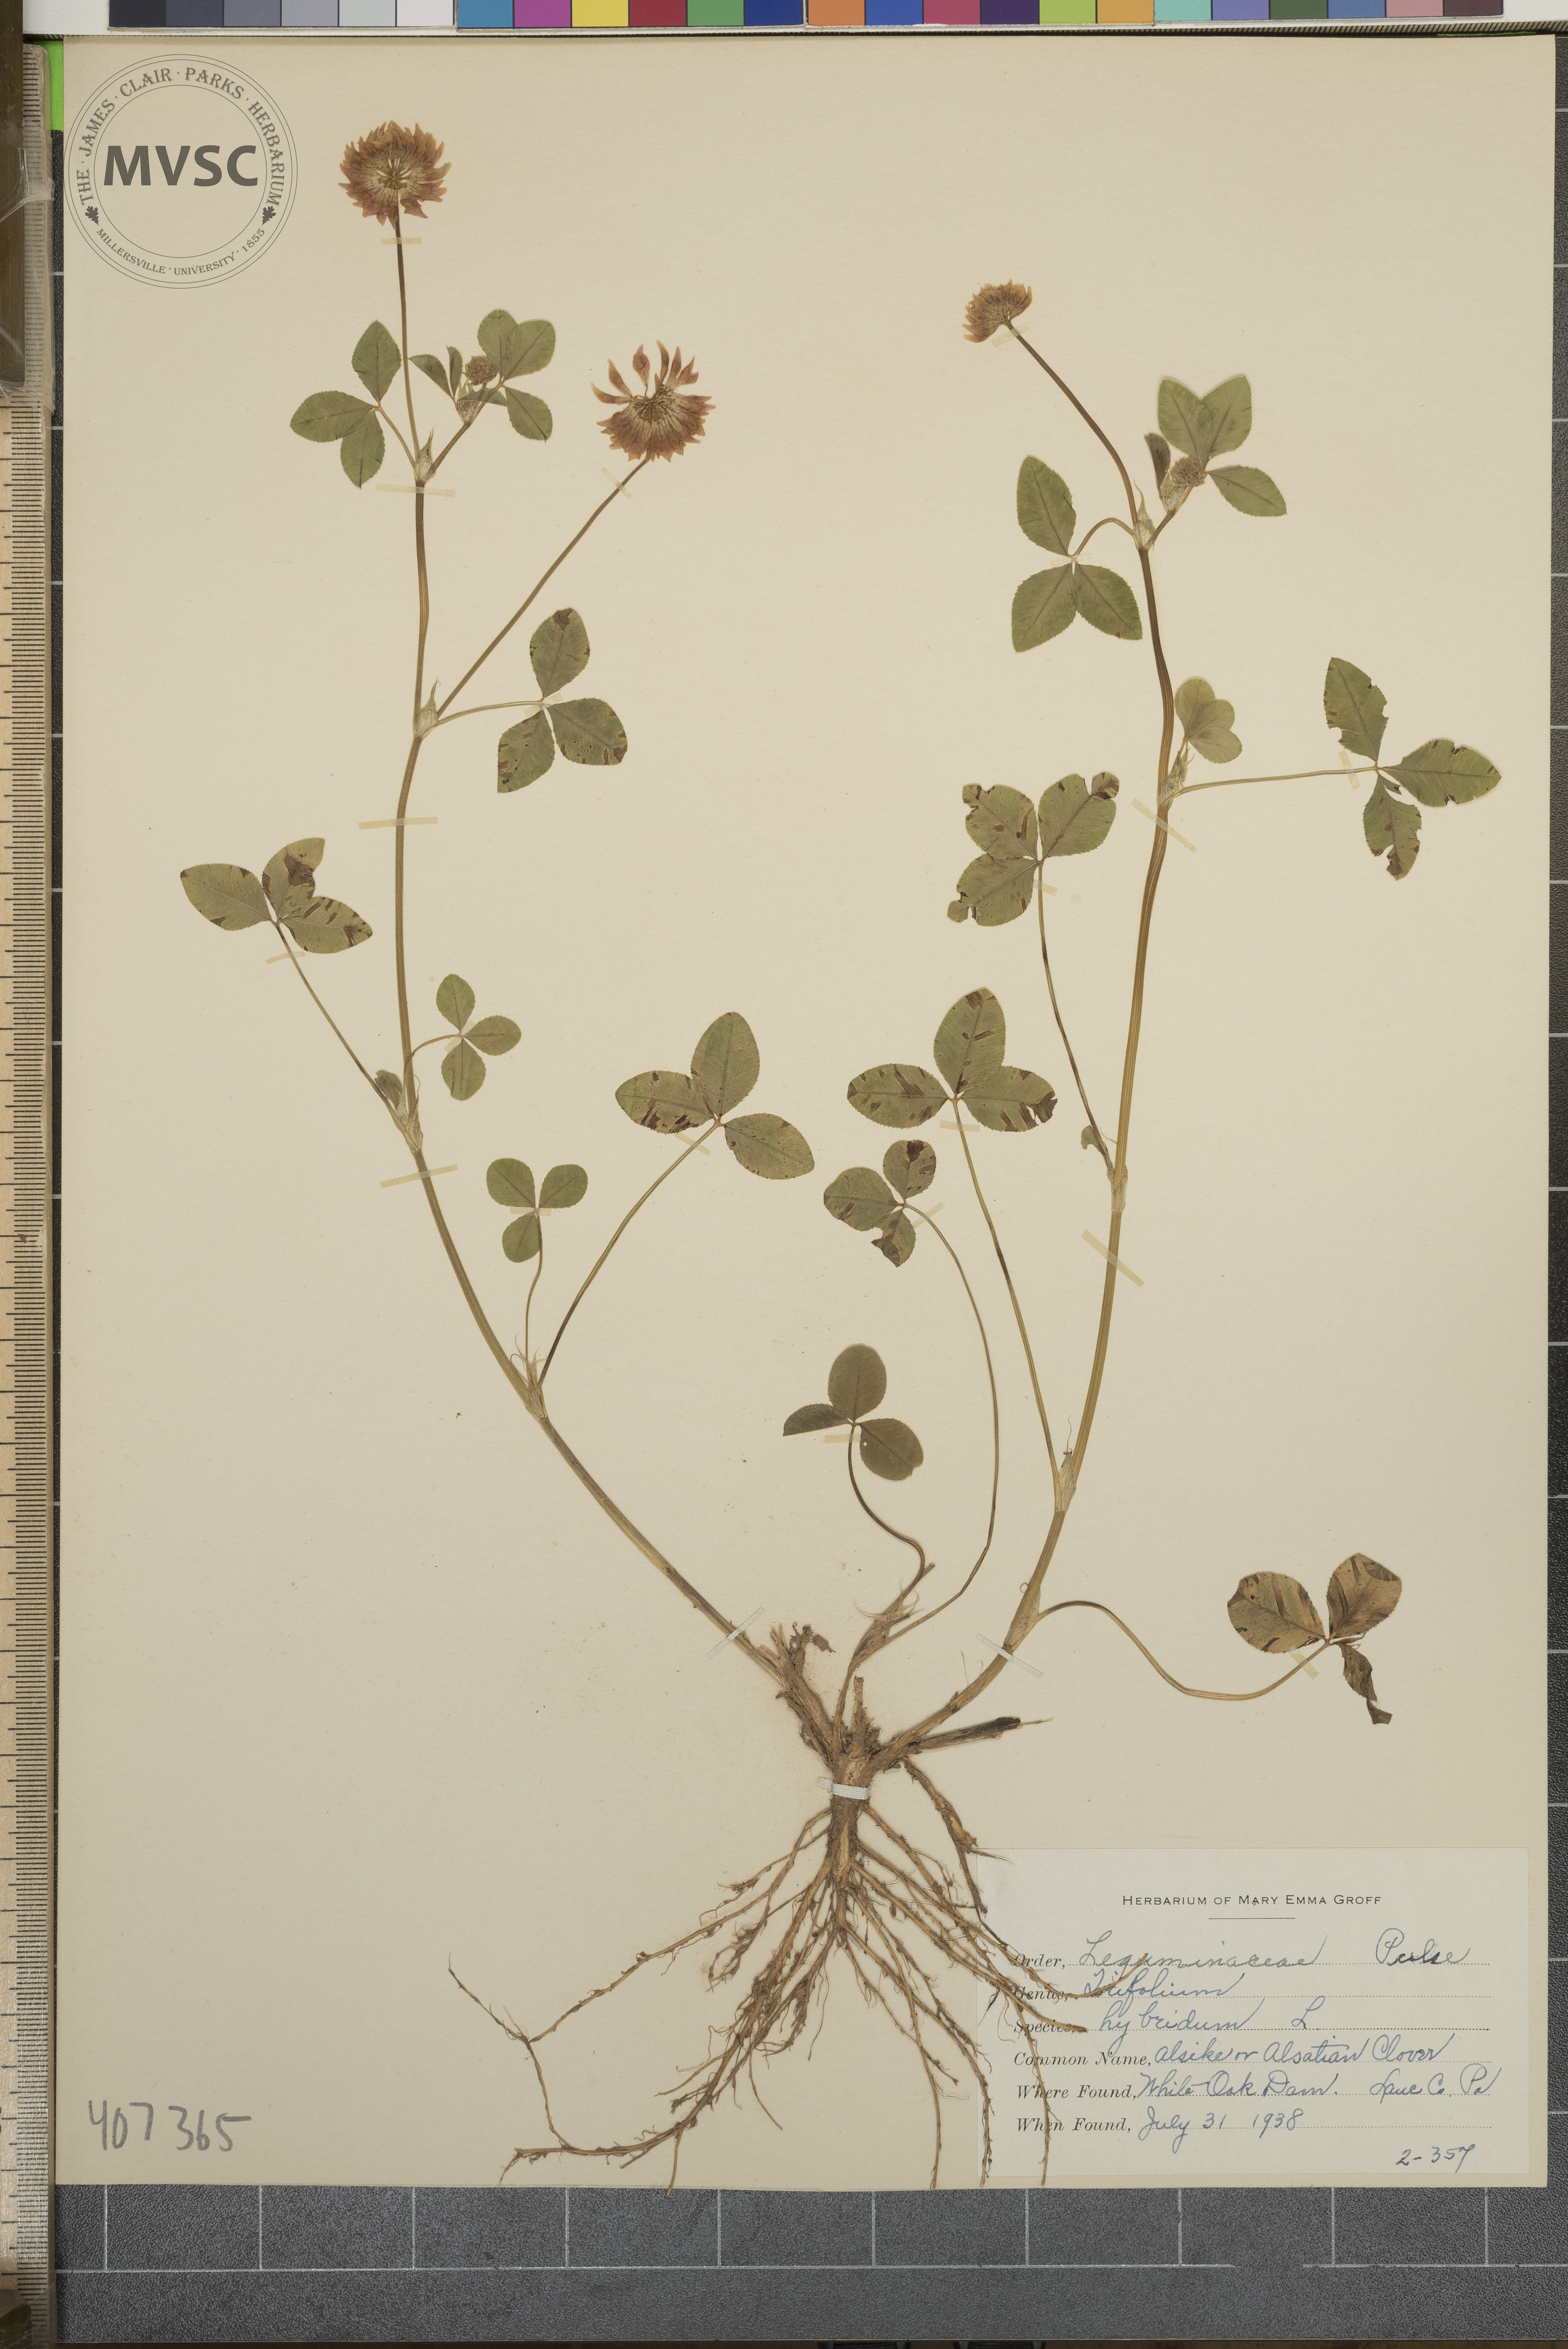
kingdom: Plantae
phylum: Tracheophyta
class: Magnoliopsida
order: Fabales
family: Fabaceae
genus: Trifolium
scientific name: Trifolium hybridum
